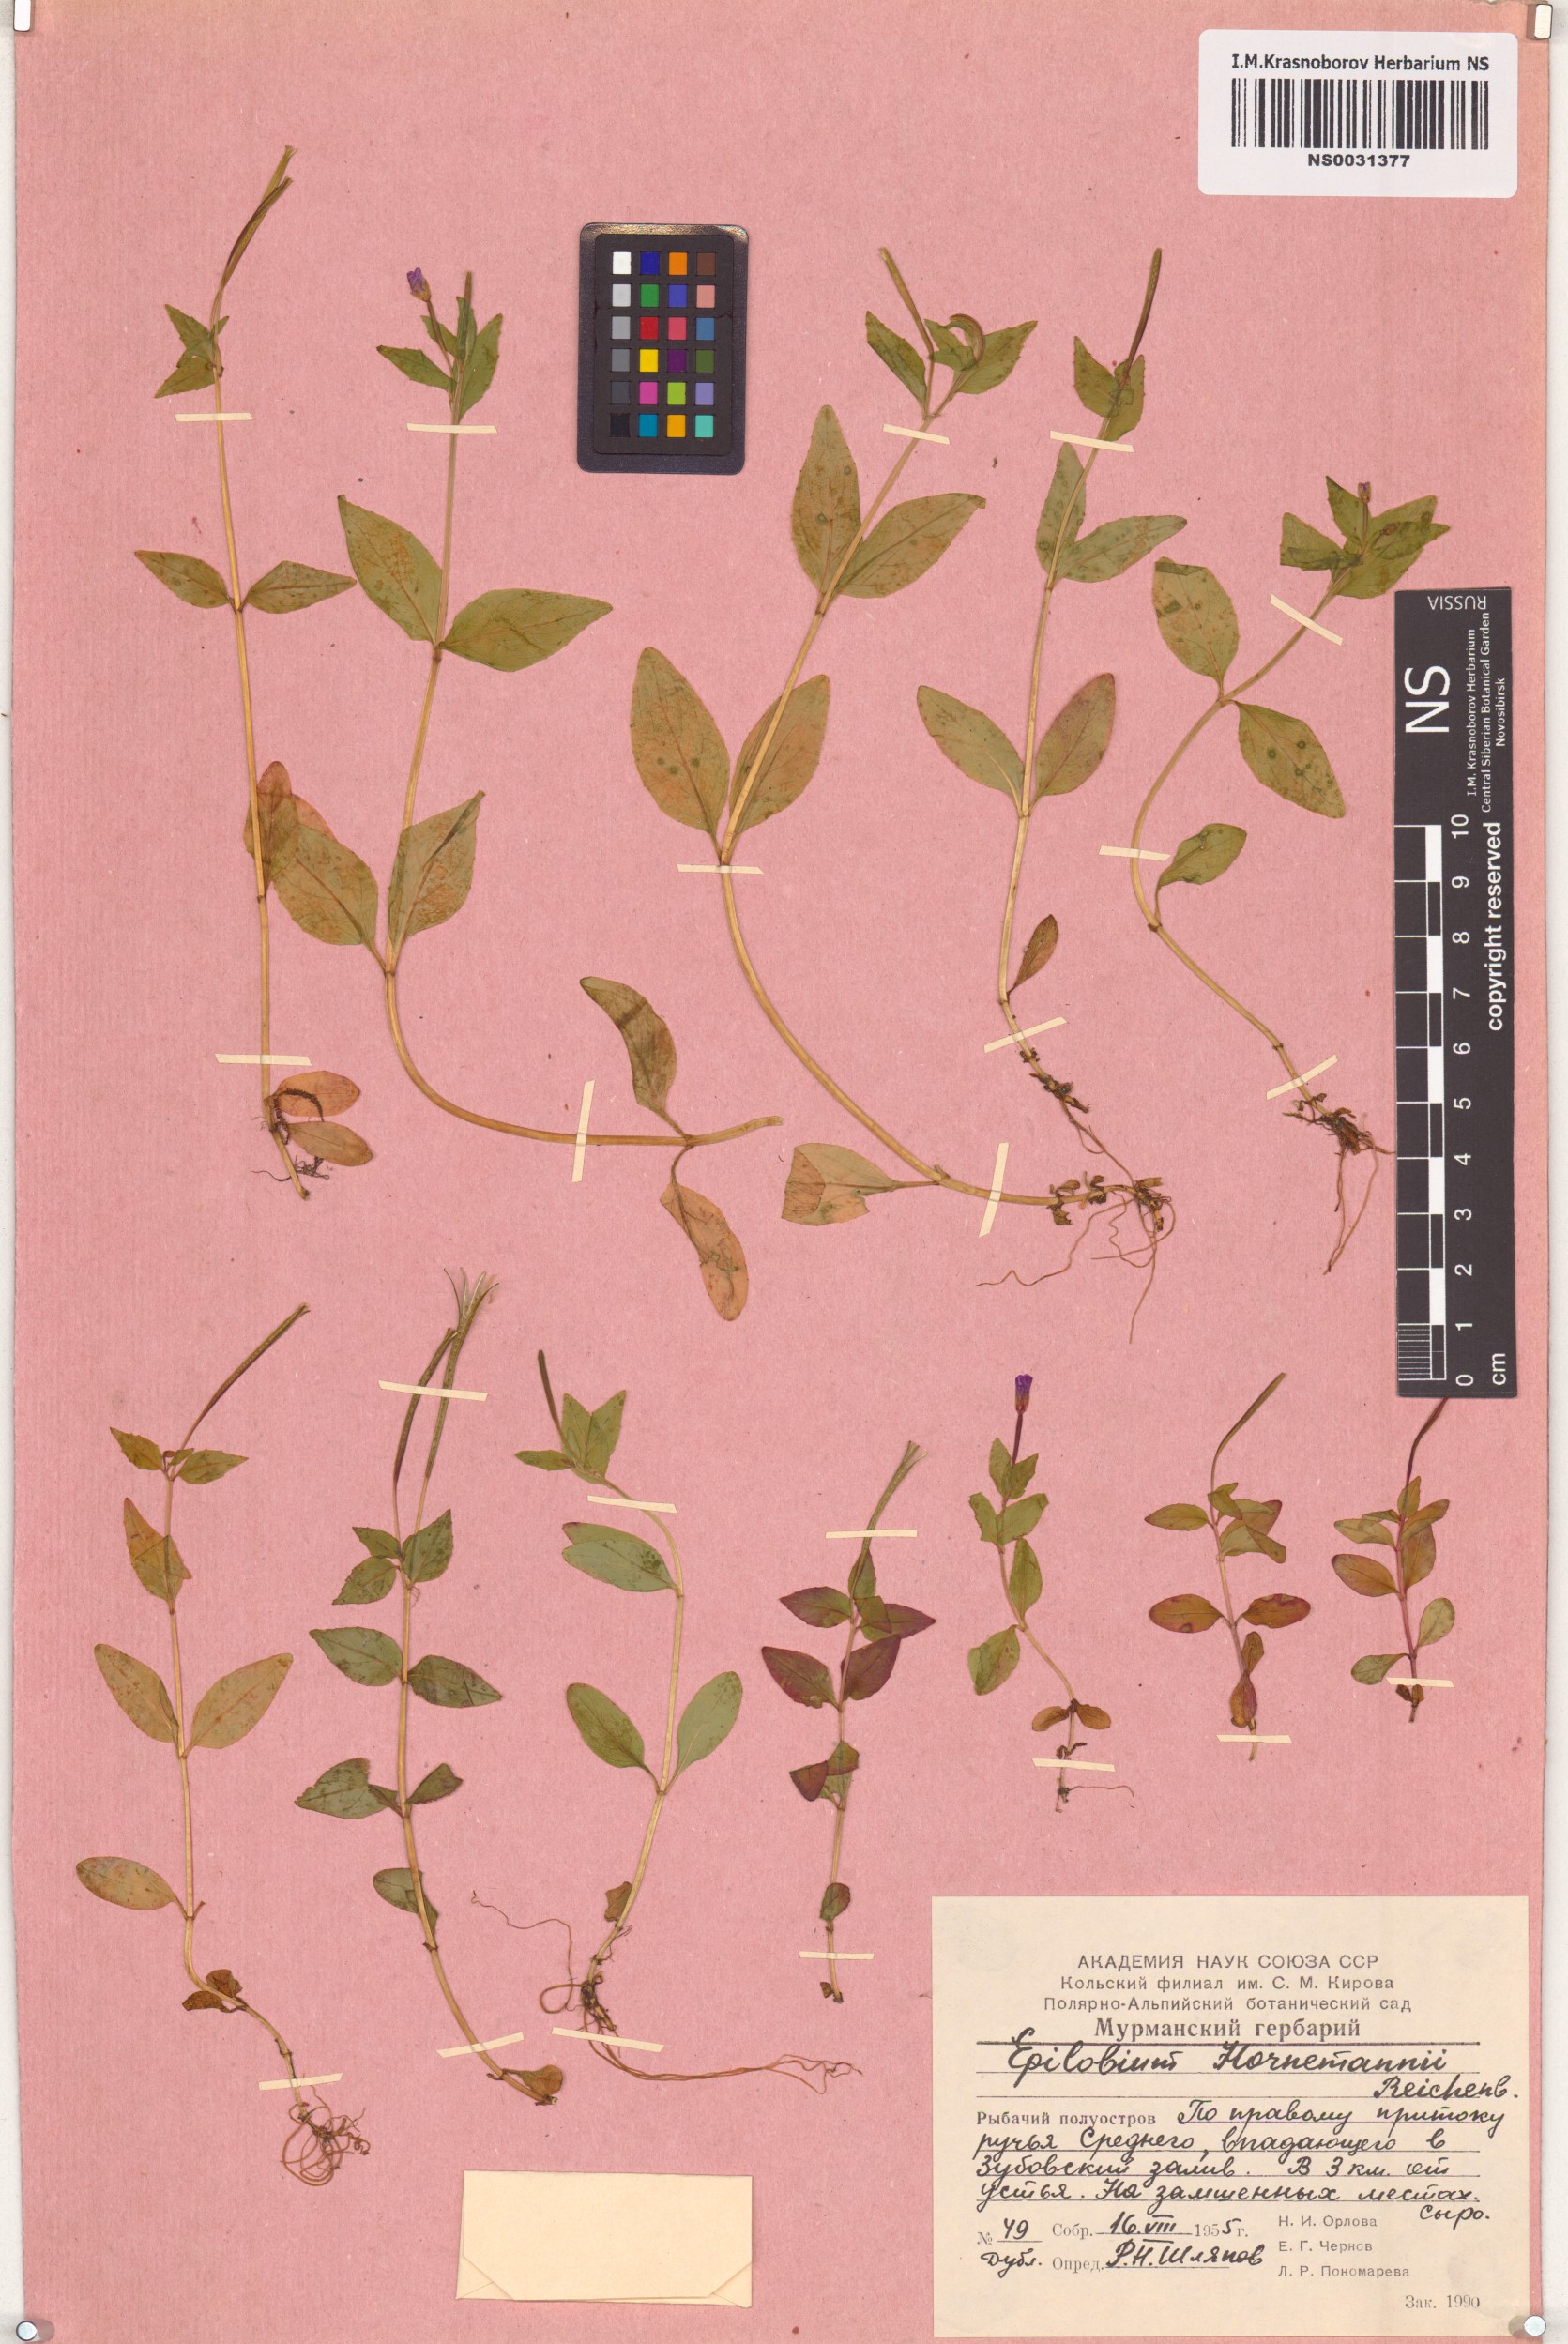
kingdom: Plantae
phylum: Tracheophyta
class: Magnoliopsida
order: Myrtales
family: Onagraceae
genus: Epilobium
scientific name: Epilobium hornemannii
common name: Hornemann's willowherb
